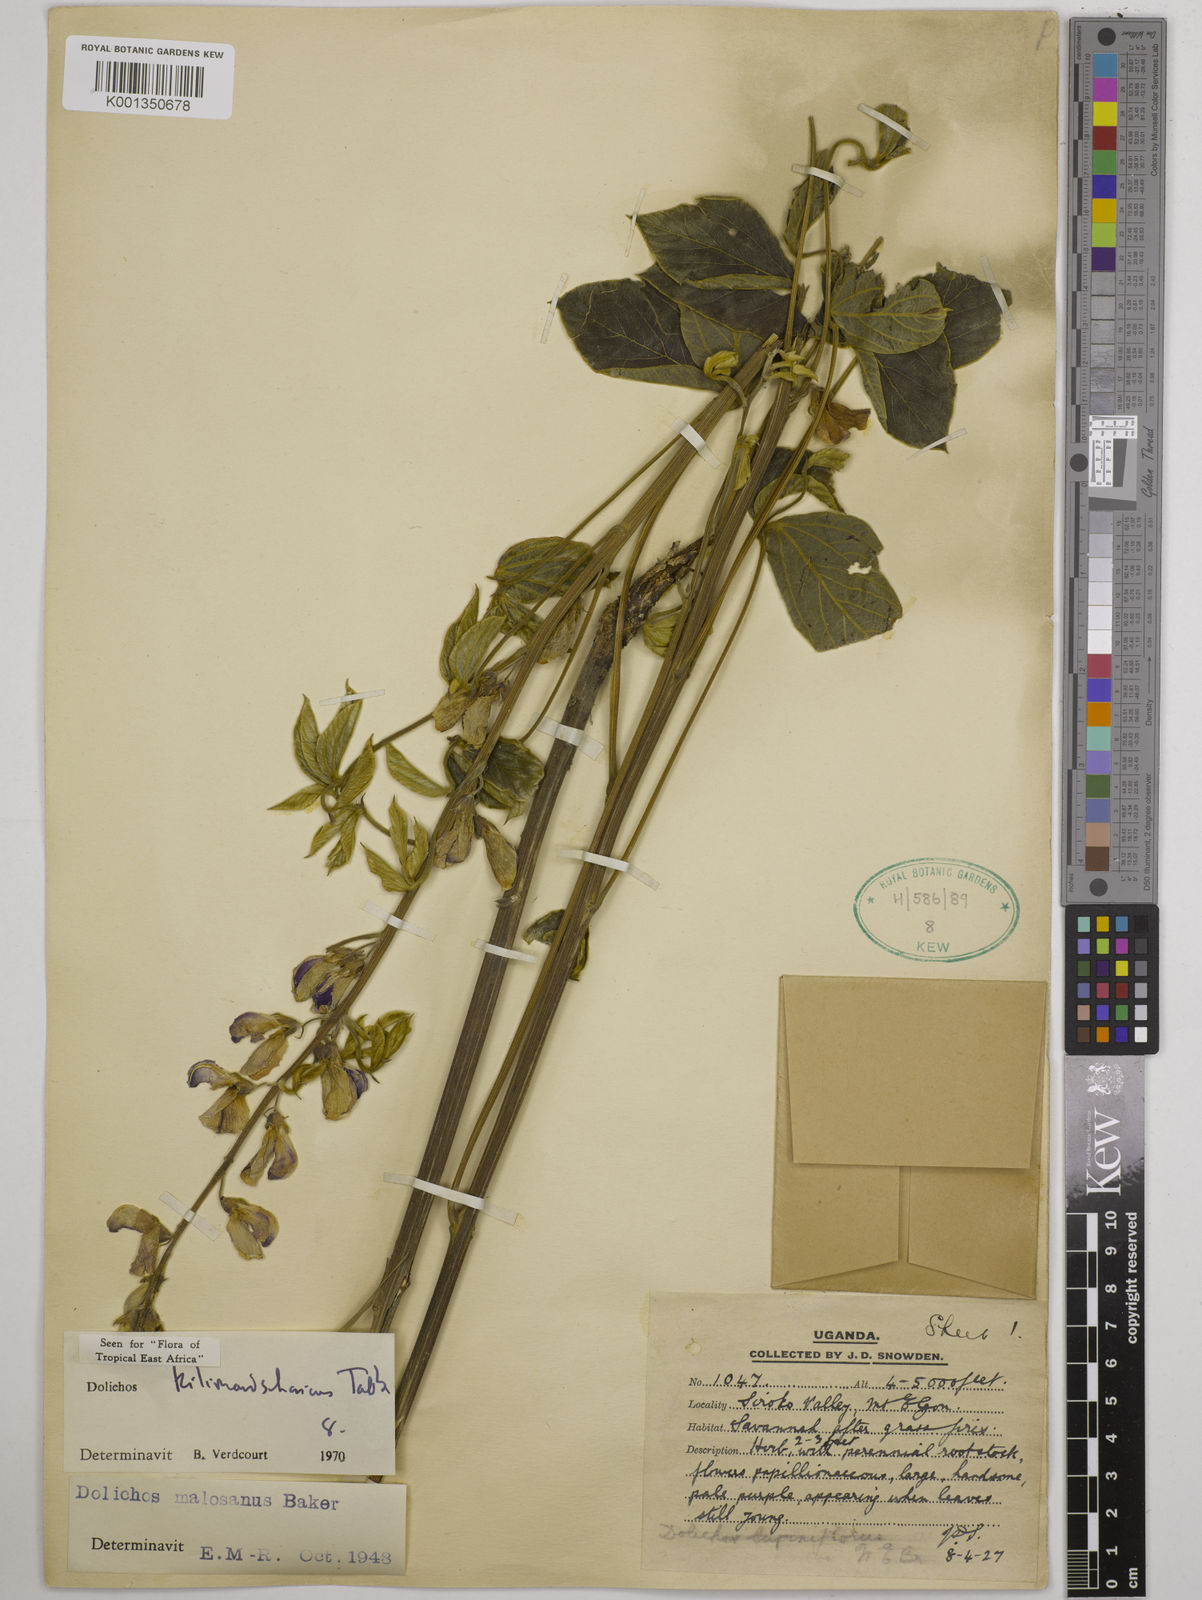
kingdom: Plantae
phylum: Tracheophyta
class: Magnoliopsida
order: Fabales
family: Fabaceae
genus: Dolichos
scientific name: Dolichos kilimandscharicus
